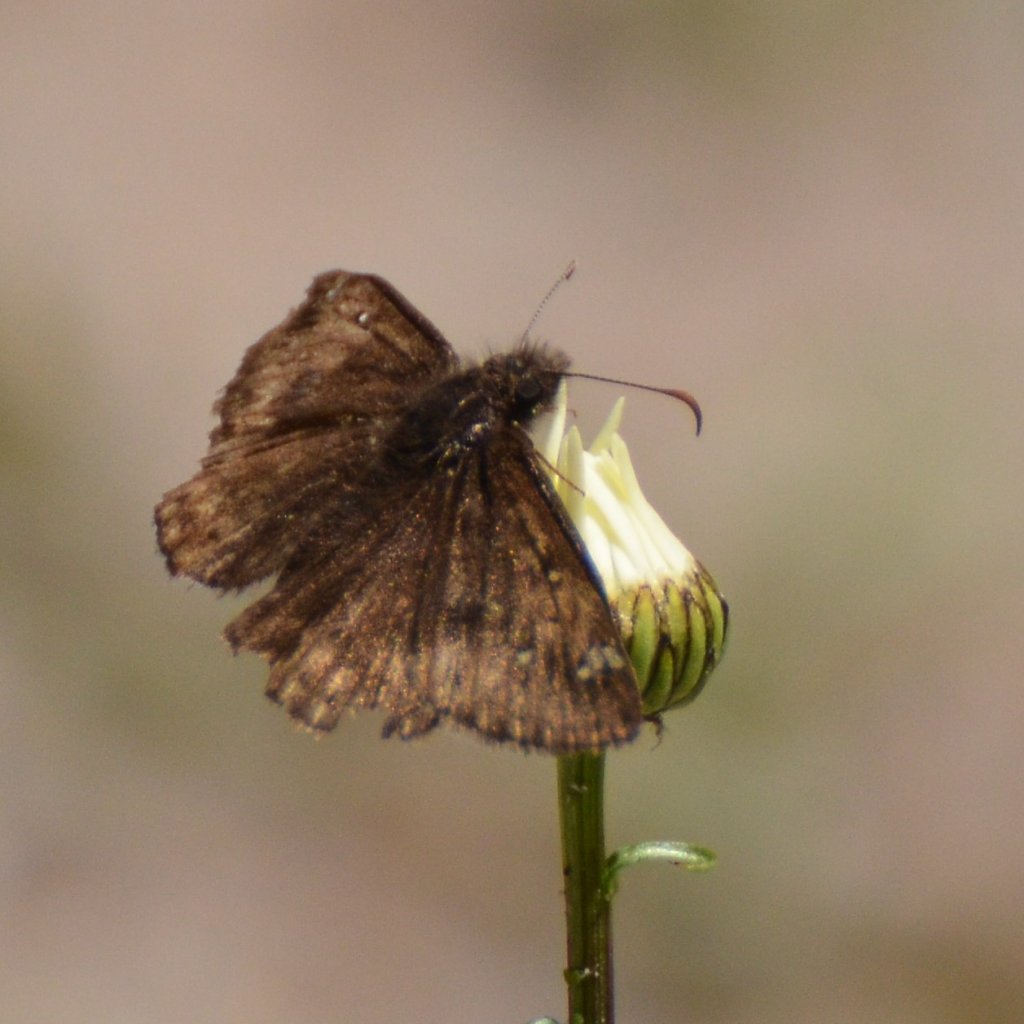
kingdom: Animalia
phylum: Arthropoda
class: Insecta
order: Lepidoptera
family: Hesperiidae
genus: Gesta
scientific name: Gesta
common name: Juvenal's Duskywing
